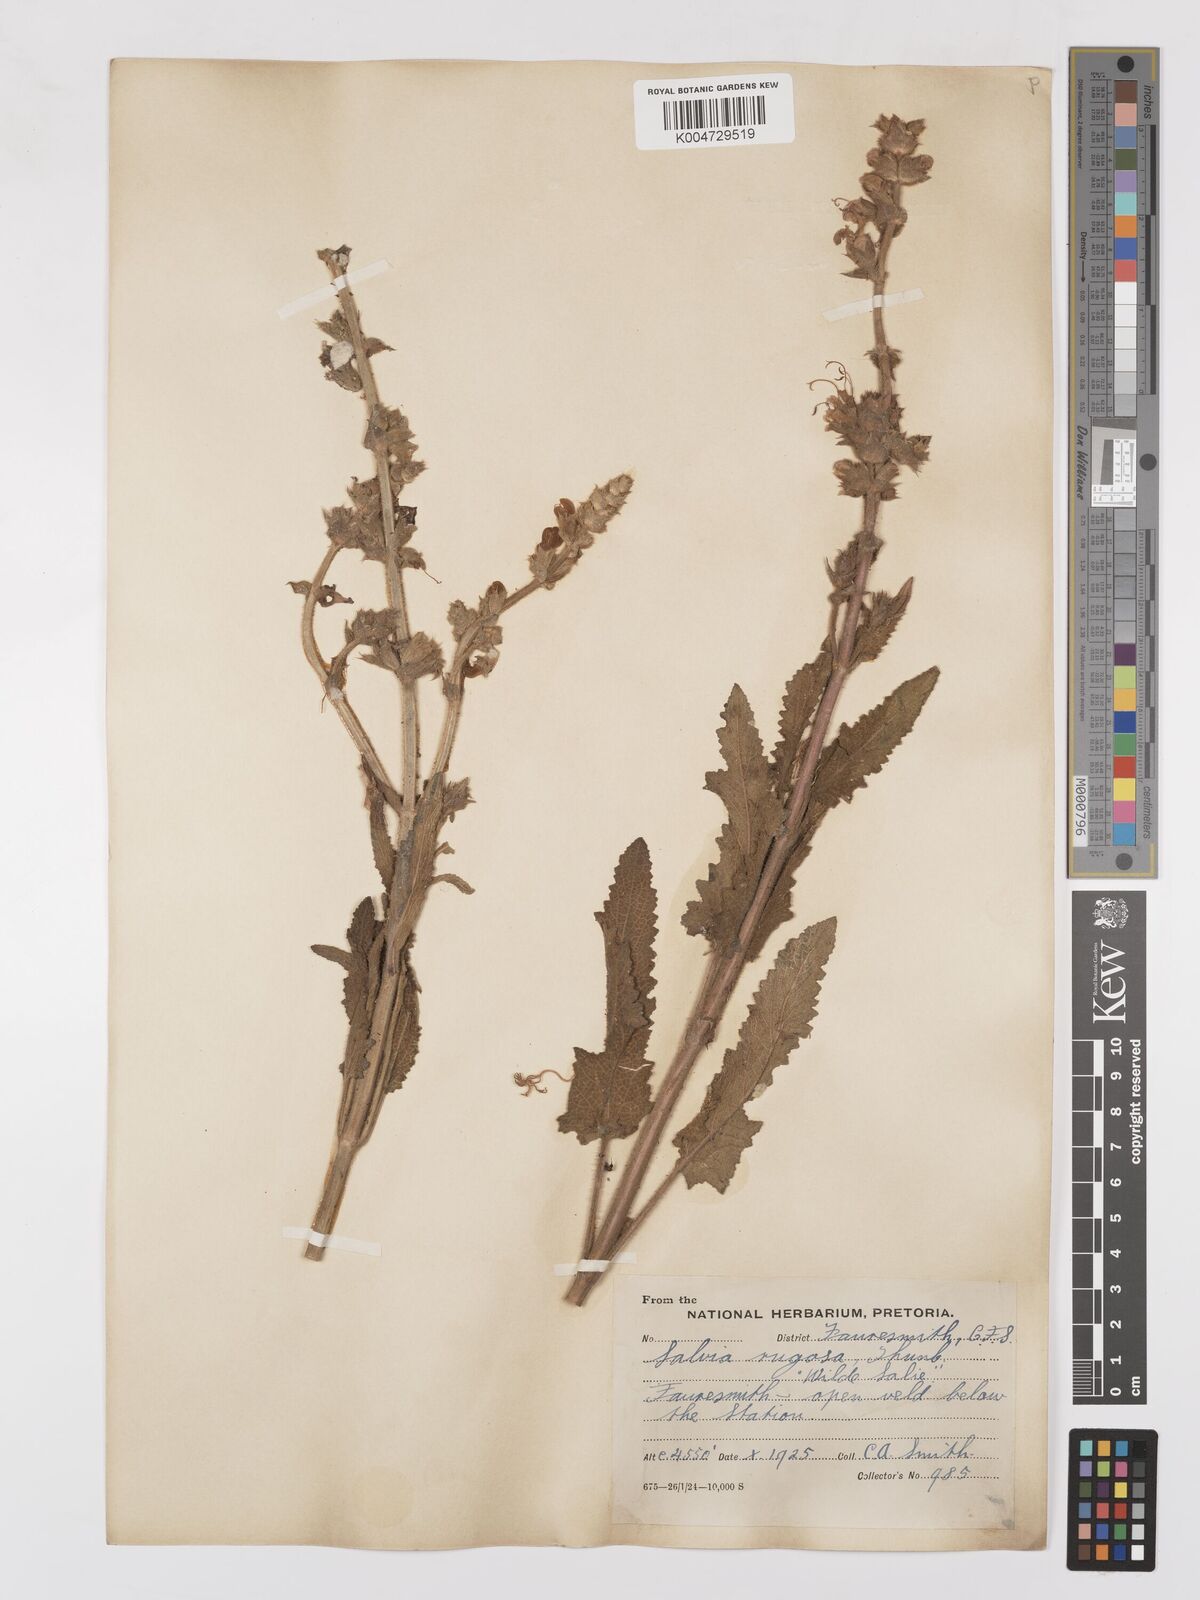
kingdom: Plantae
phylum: Tracheophyta
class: Magnoliopsida
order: Lamiales
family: Lamiaceae
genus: Salvia
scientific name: Salvia
